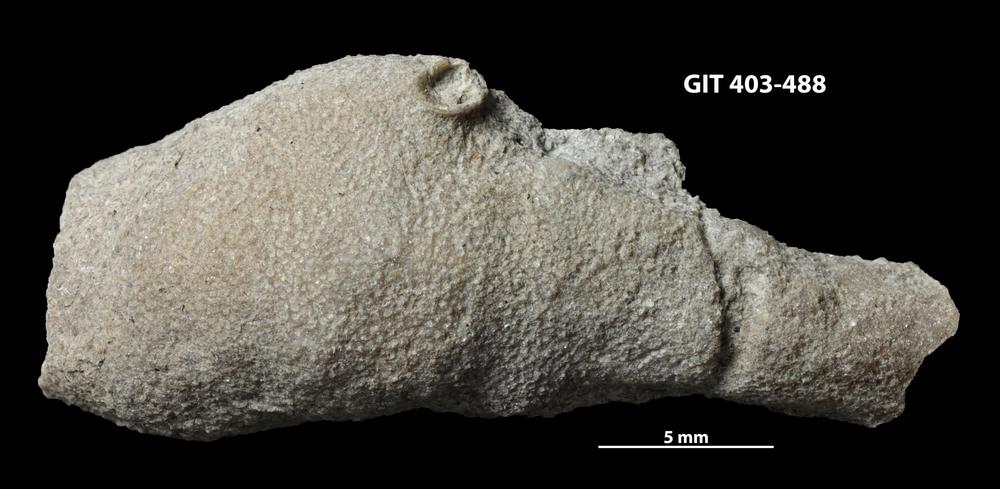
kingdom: Animalia
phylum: Bryozoa
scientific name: Bryozoa
